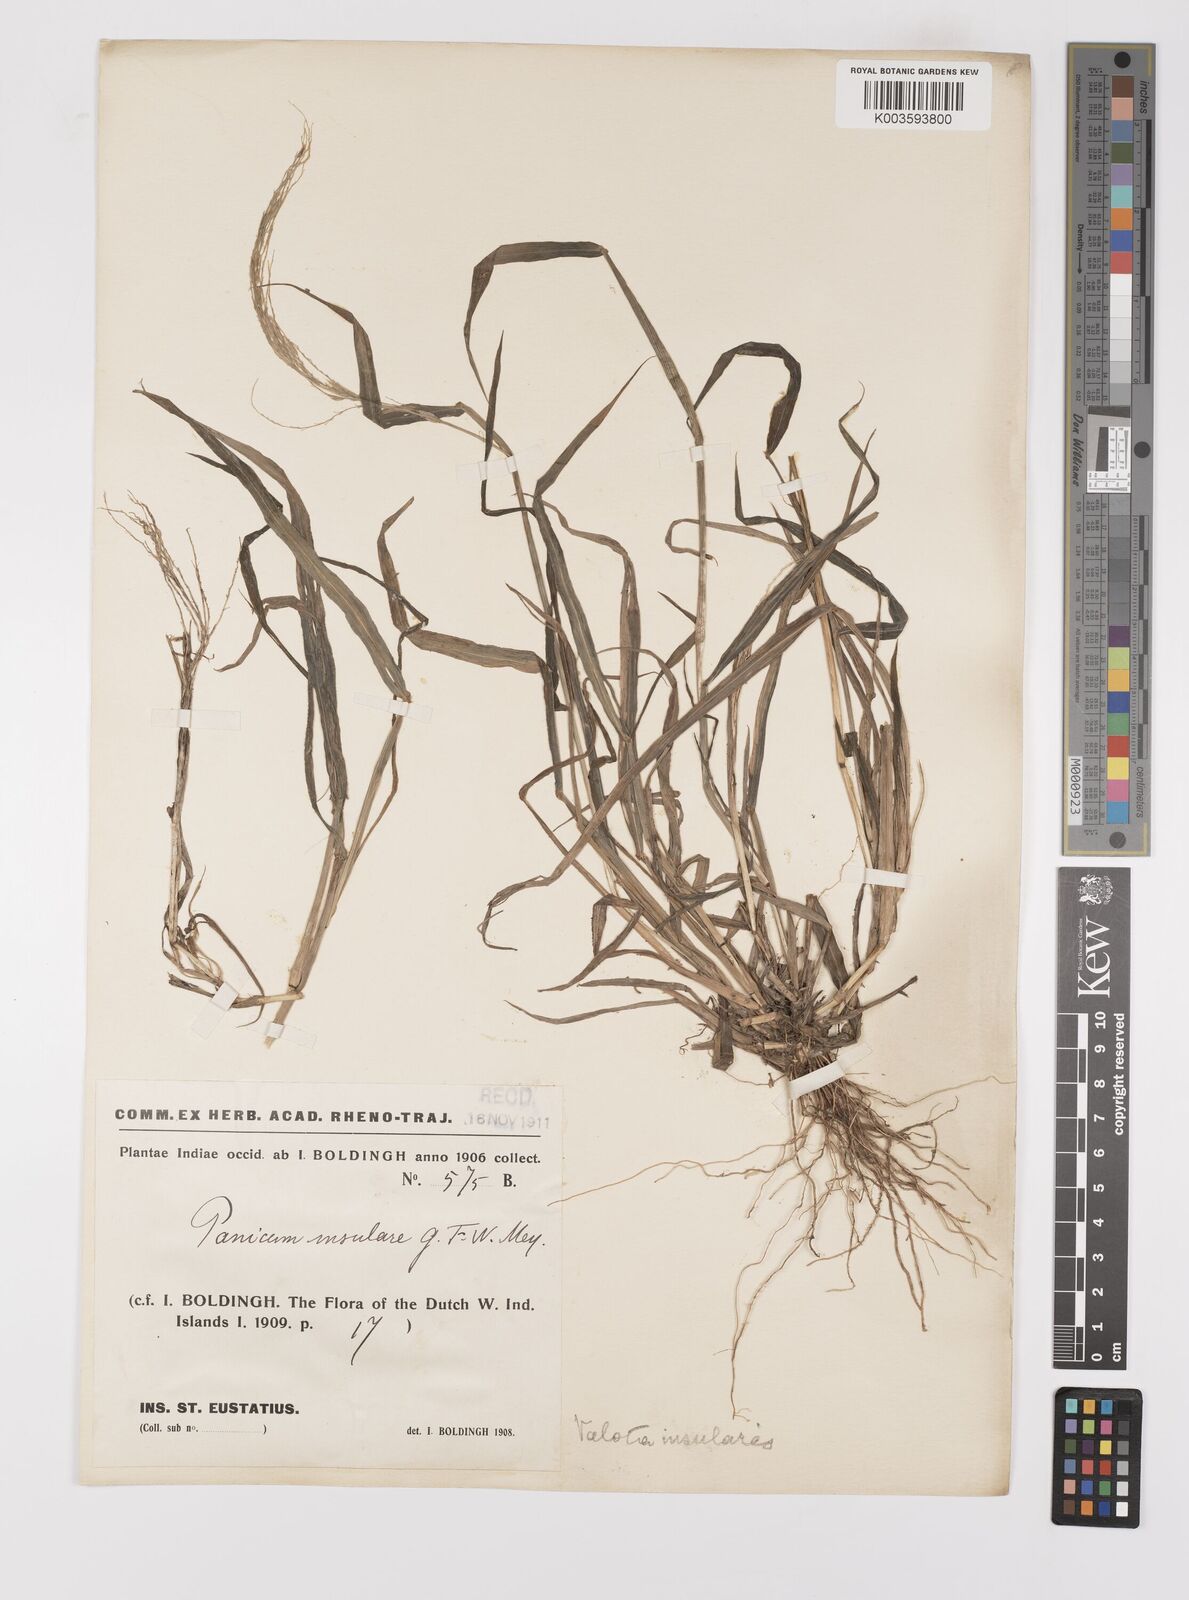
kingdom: Plantae
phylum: Tracheophyta
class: Liliopsida
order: Poales
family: Poaceae
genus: Digitaria
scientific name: Digitaria insularis
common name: Sourgrass
